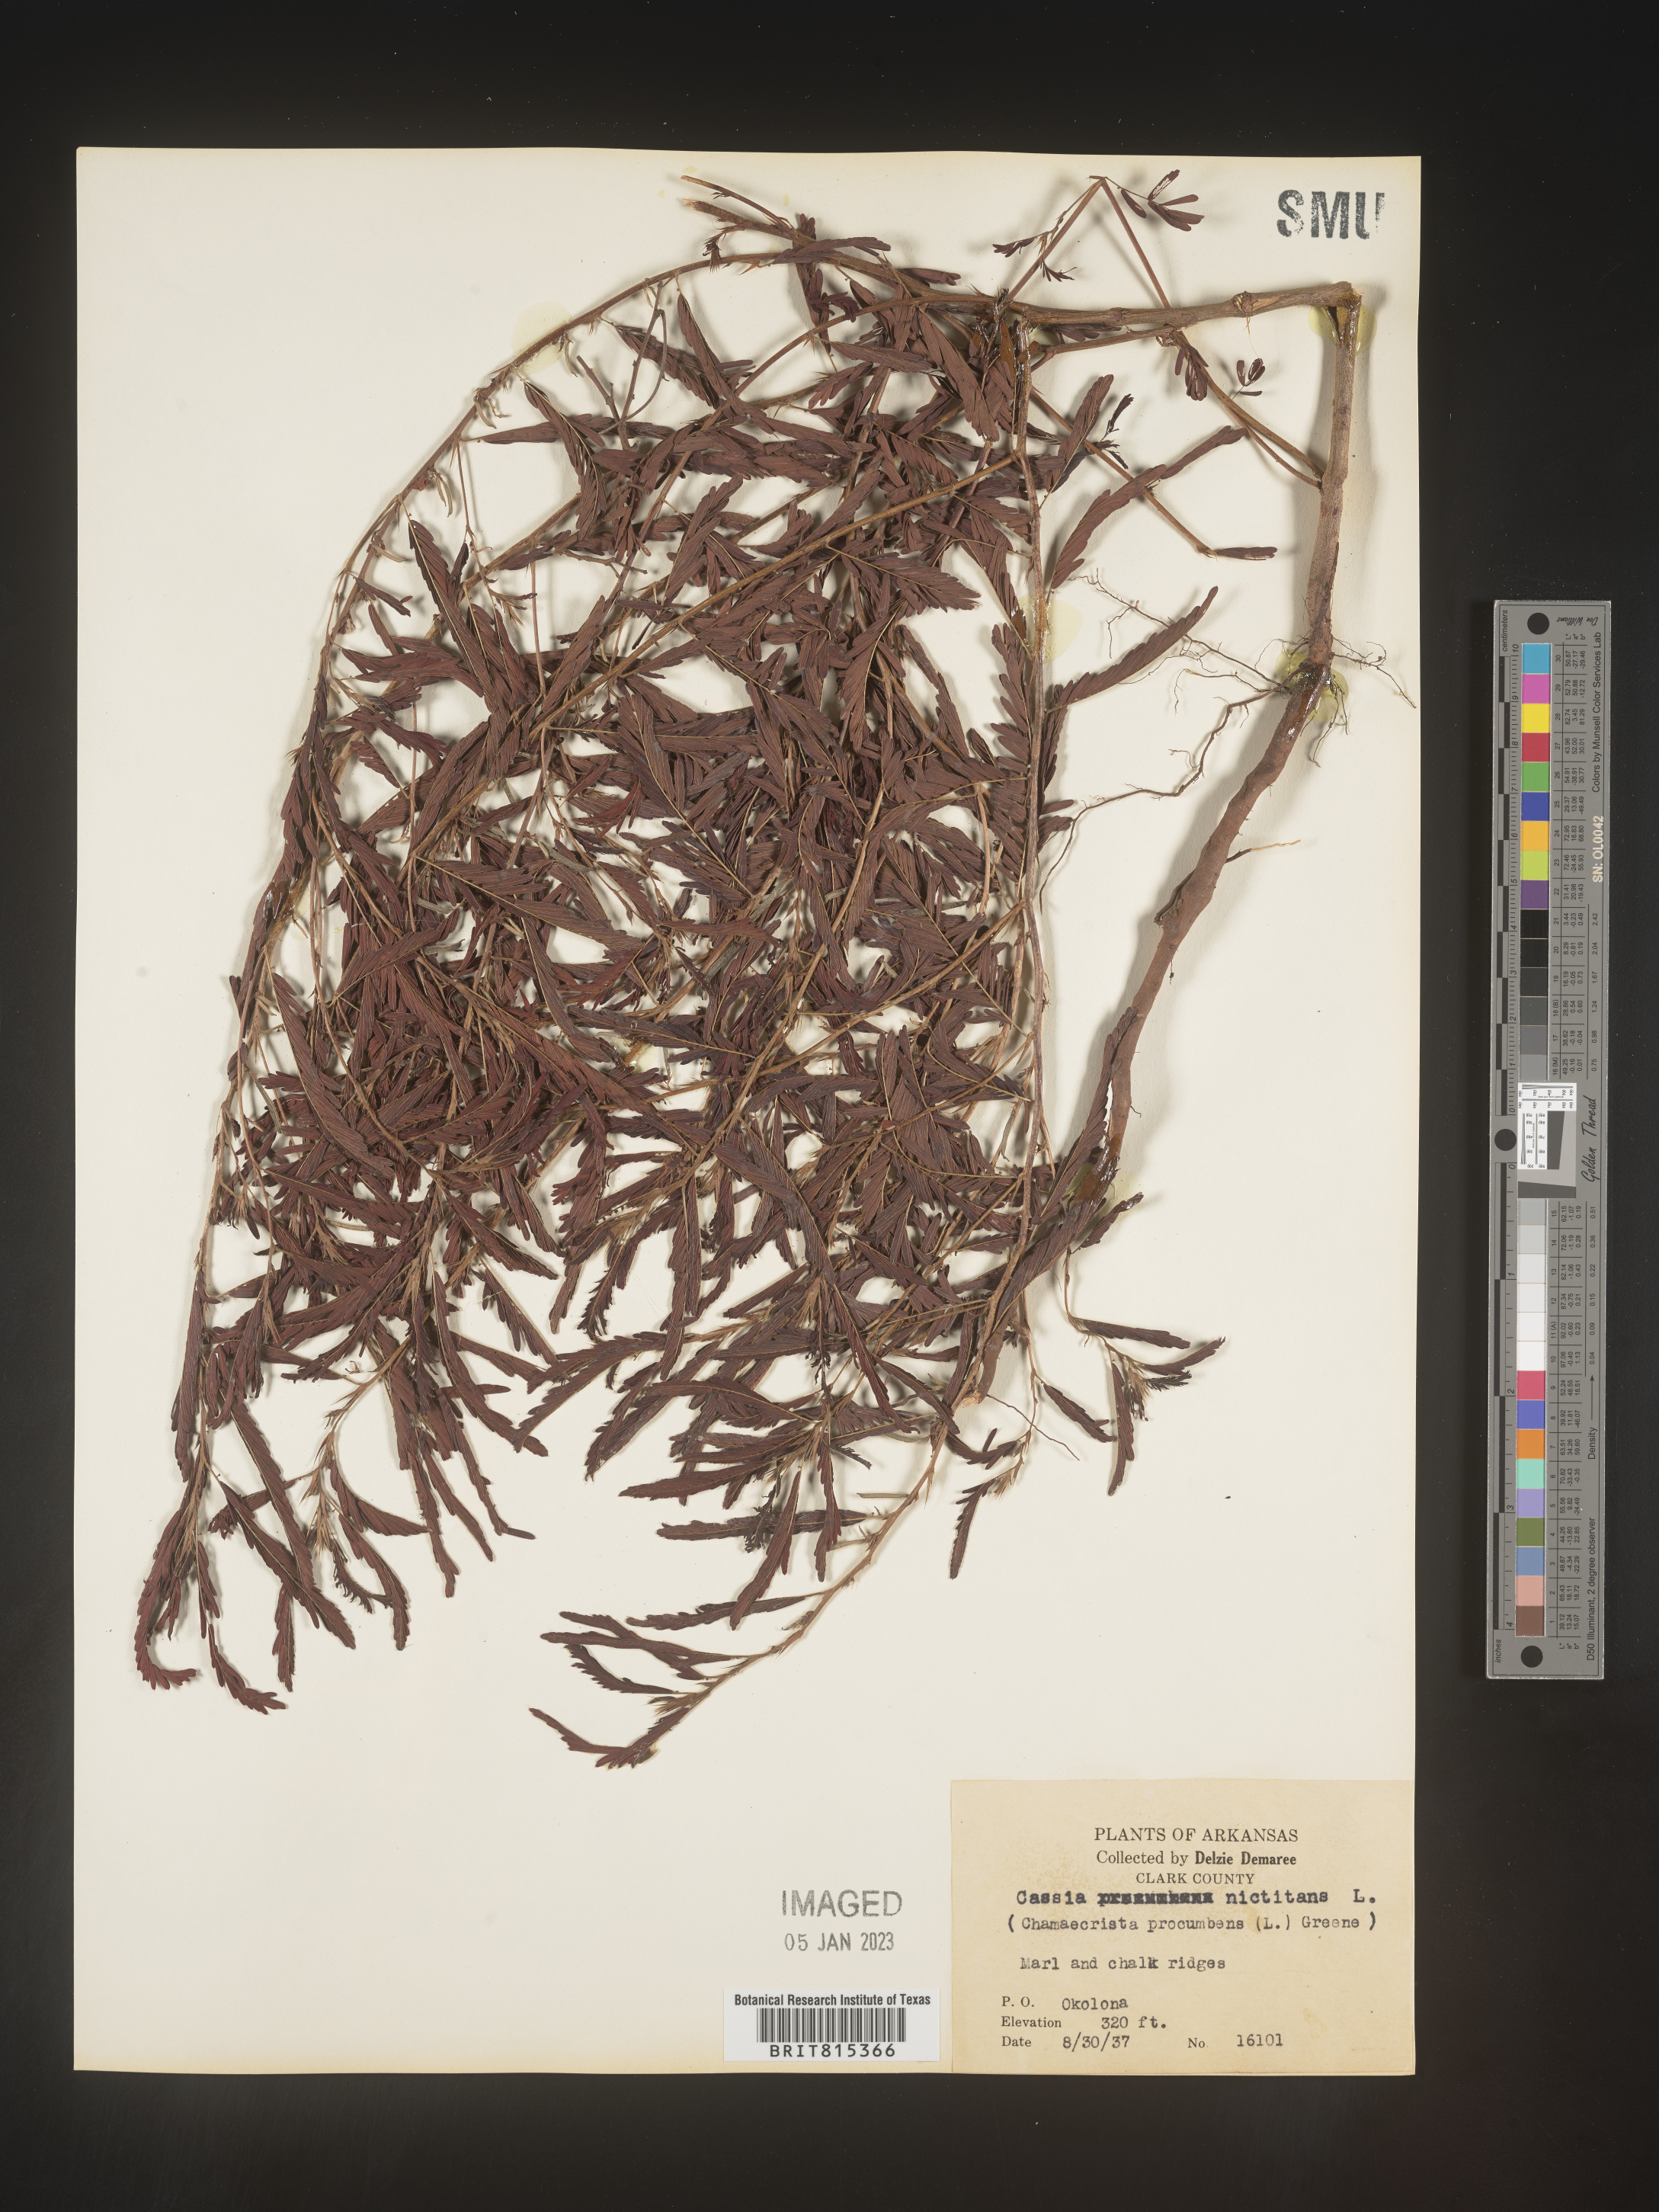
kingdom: Plantae
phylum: Tracheophyta
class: Magnoliopsida
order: Fabales
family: Fabaceae
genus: Chamaecrista
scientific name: Chamaecrista nictitans
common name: Sensitive cassia
